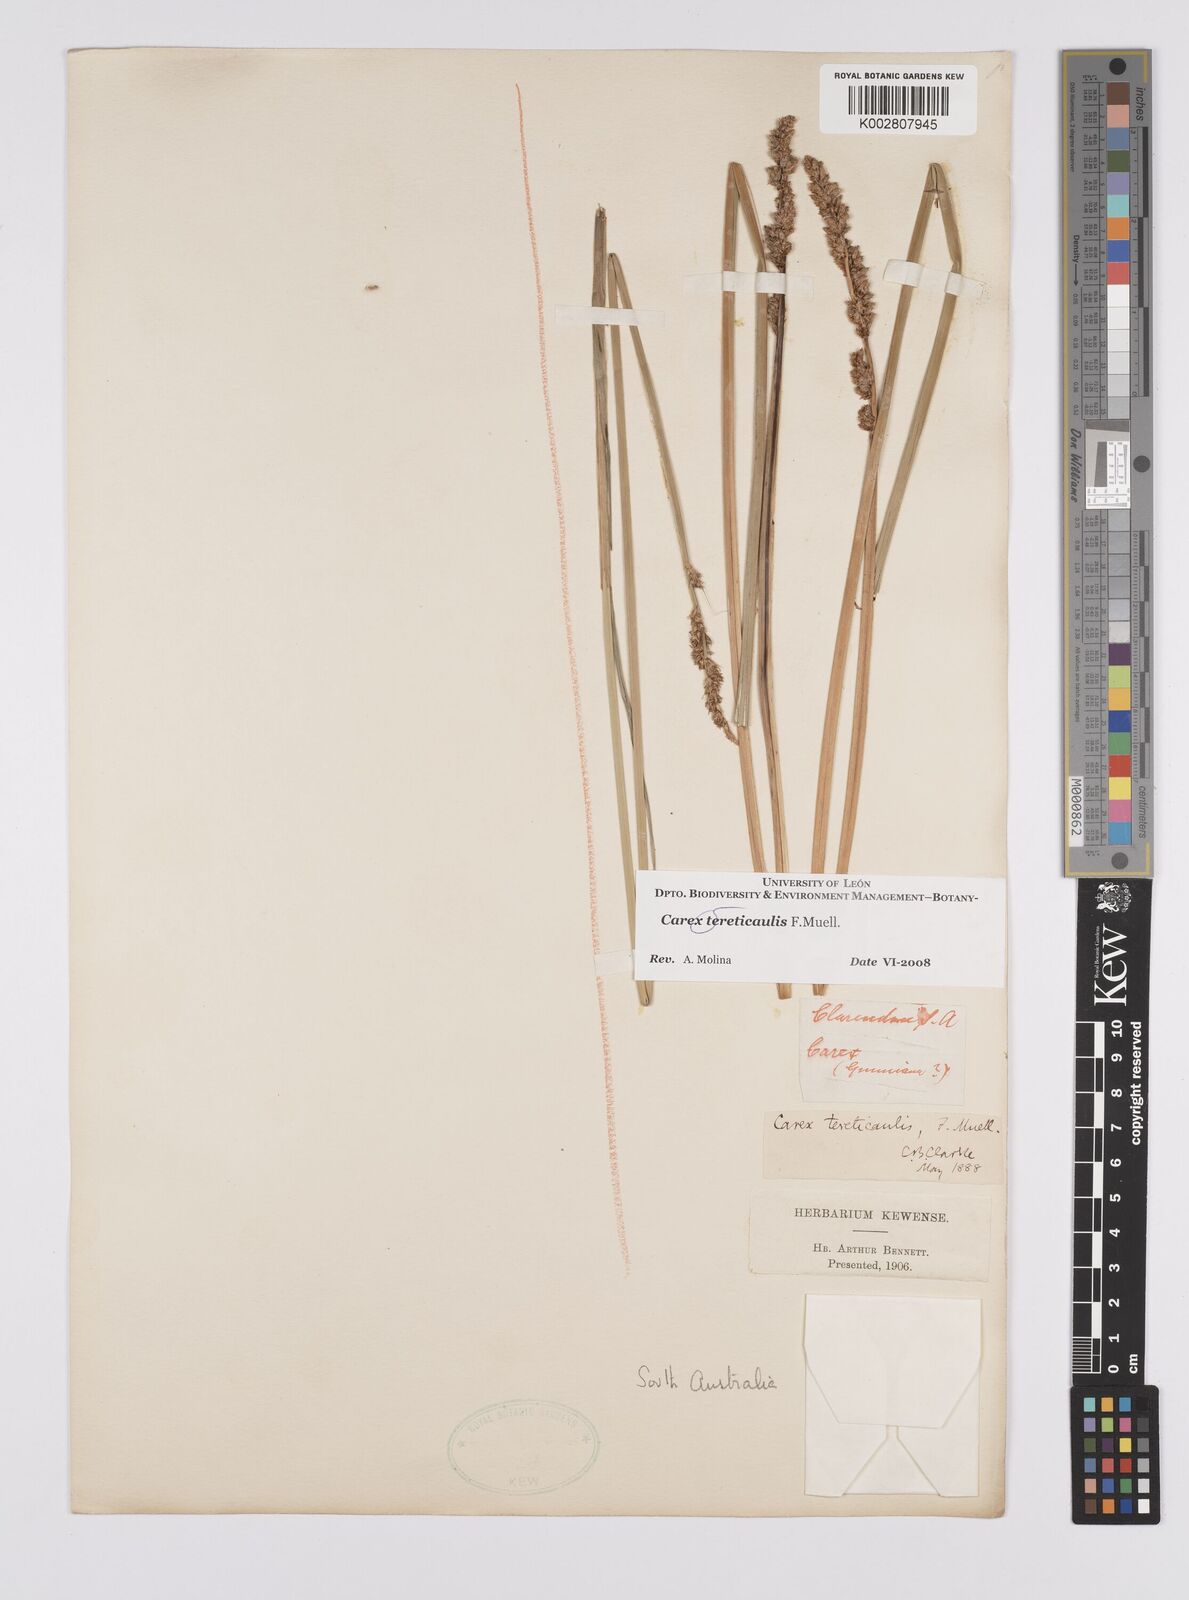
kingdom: Plantae
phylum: Tracheophyta
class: Liliopsida
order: Poales
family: Cyperaceae
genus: Carex
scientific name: Carex tereticaulis
